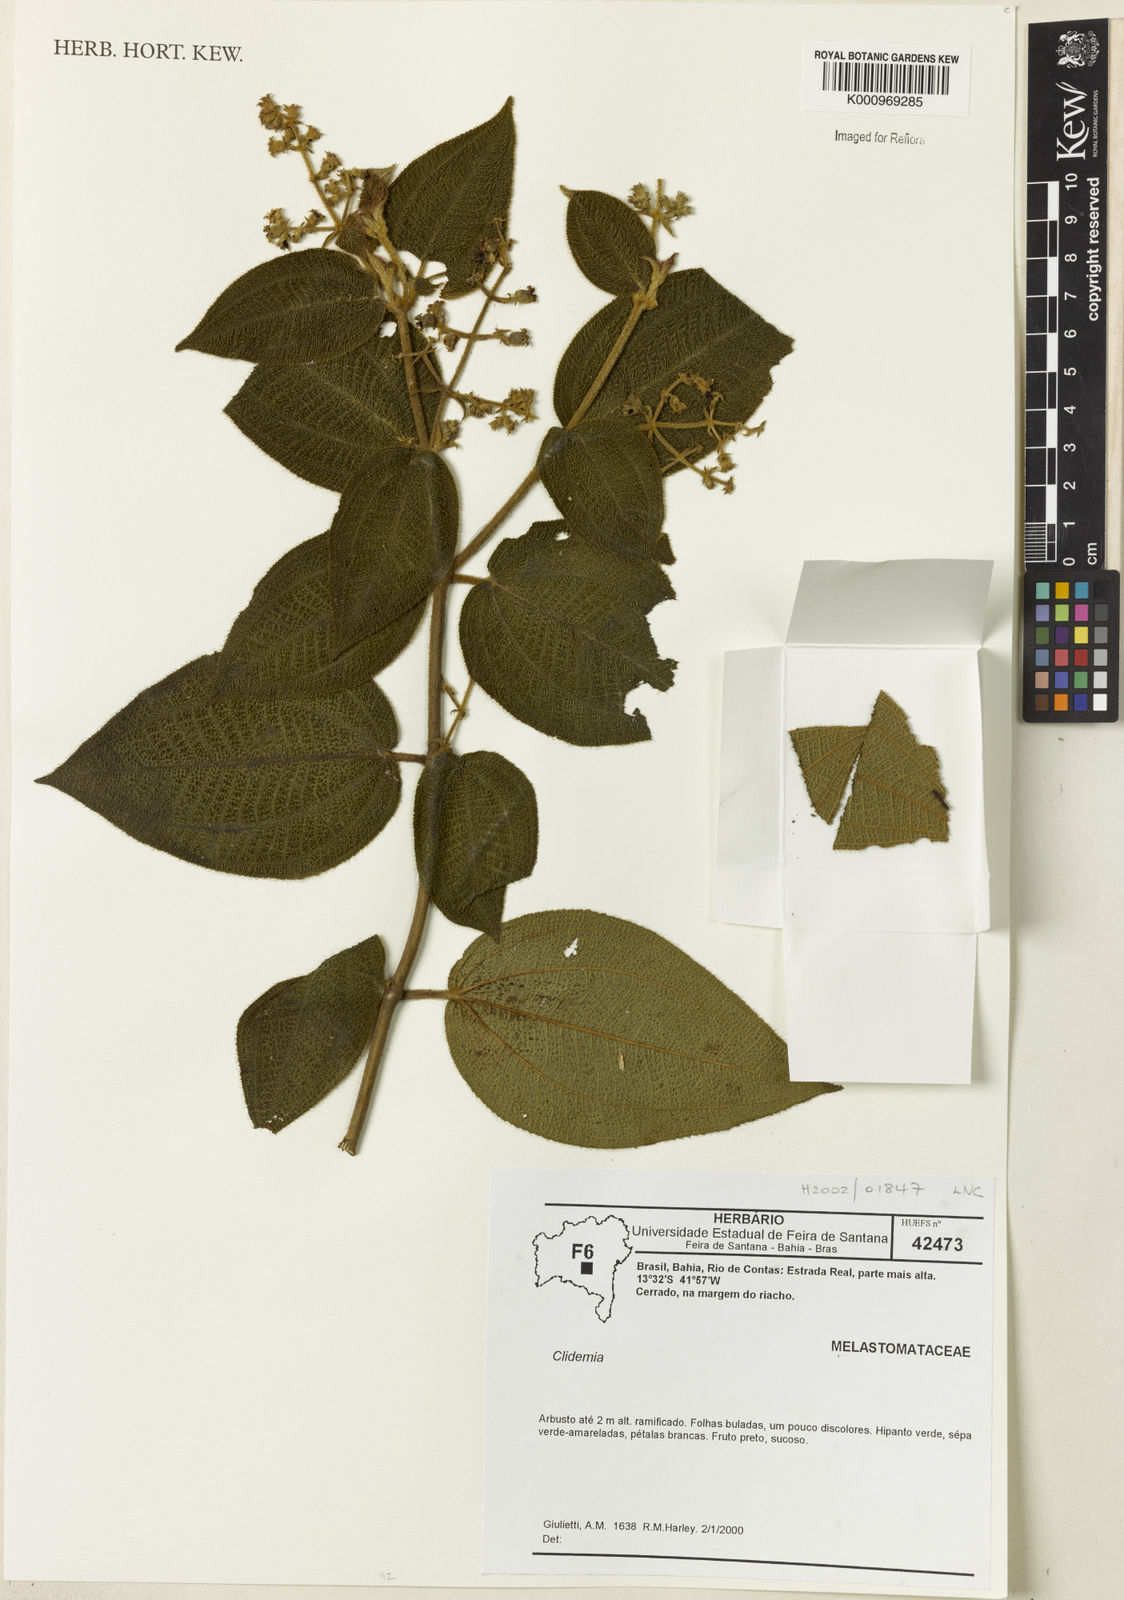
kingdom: Plantae
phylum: Tracheophyta
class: Magnoliopsida
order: Myrtales
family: Melastomataceae
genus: Miconia
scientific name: Miconia
